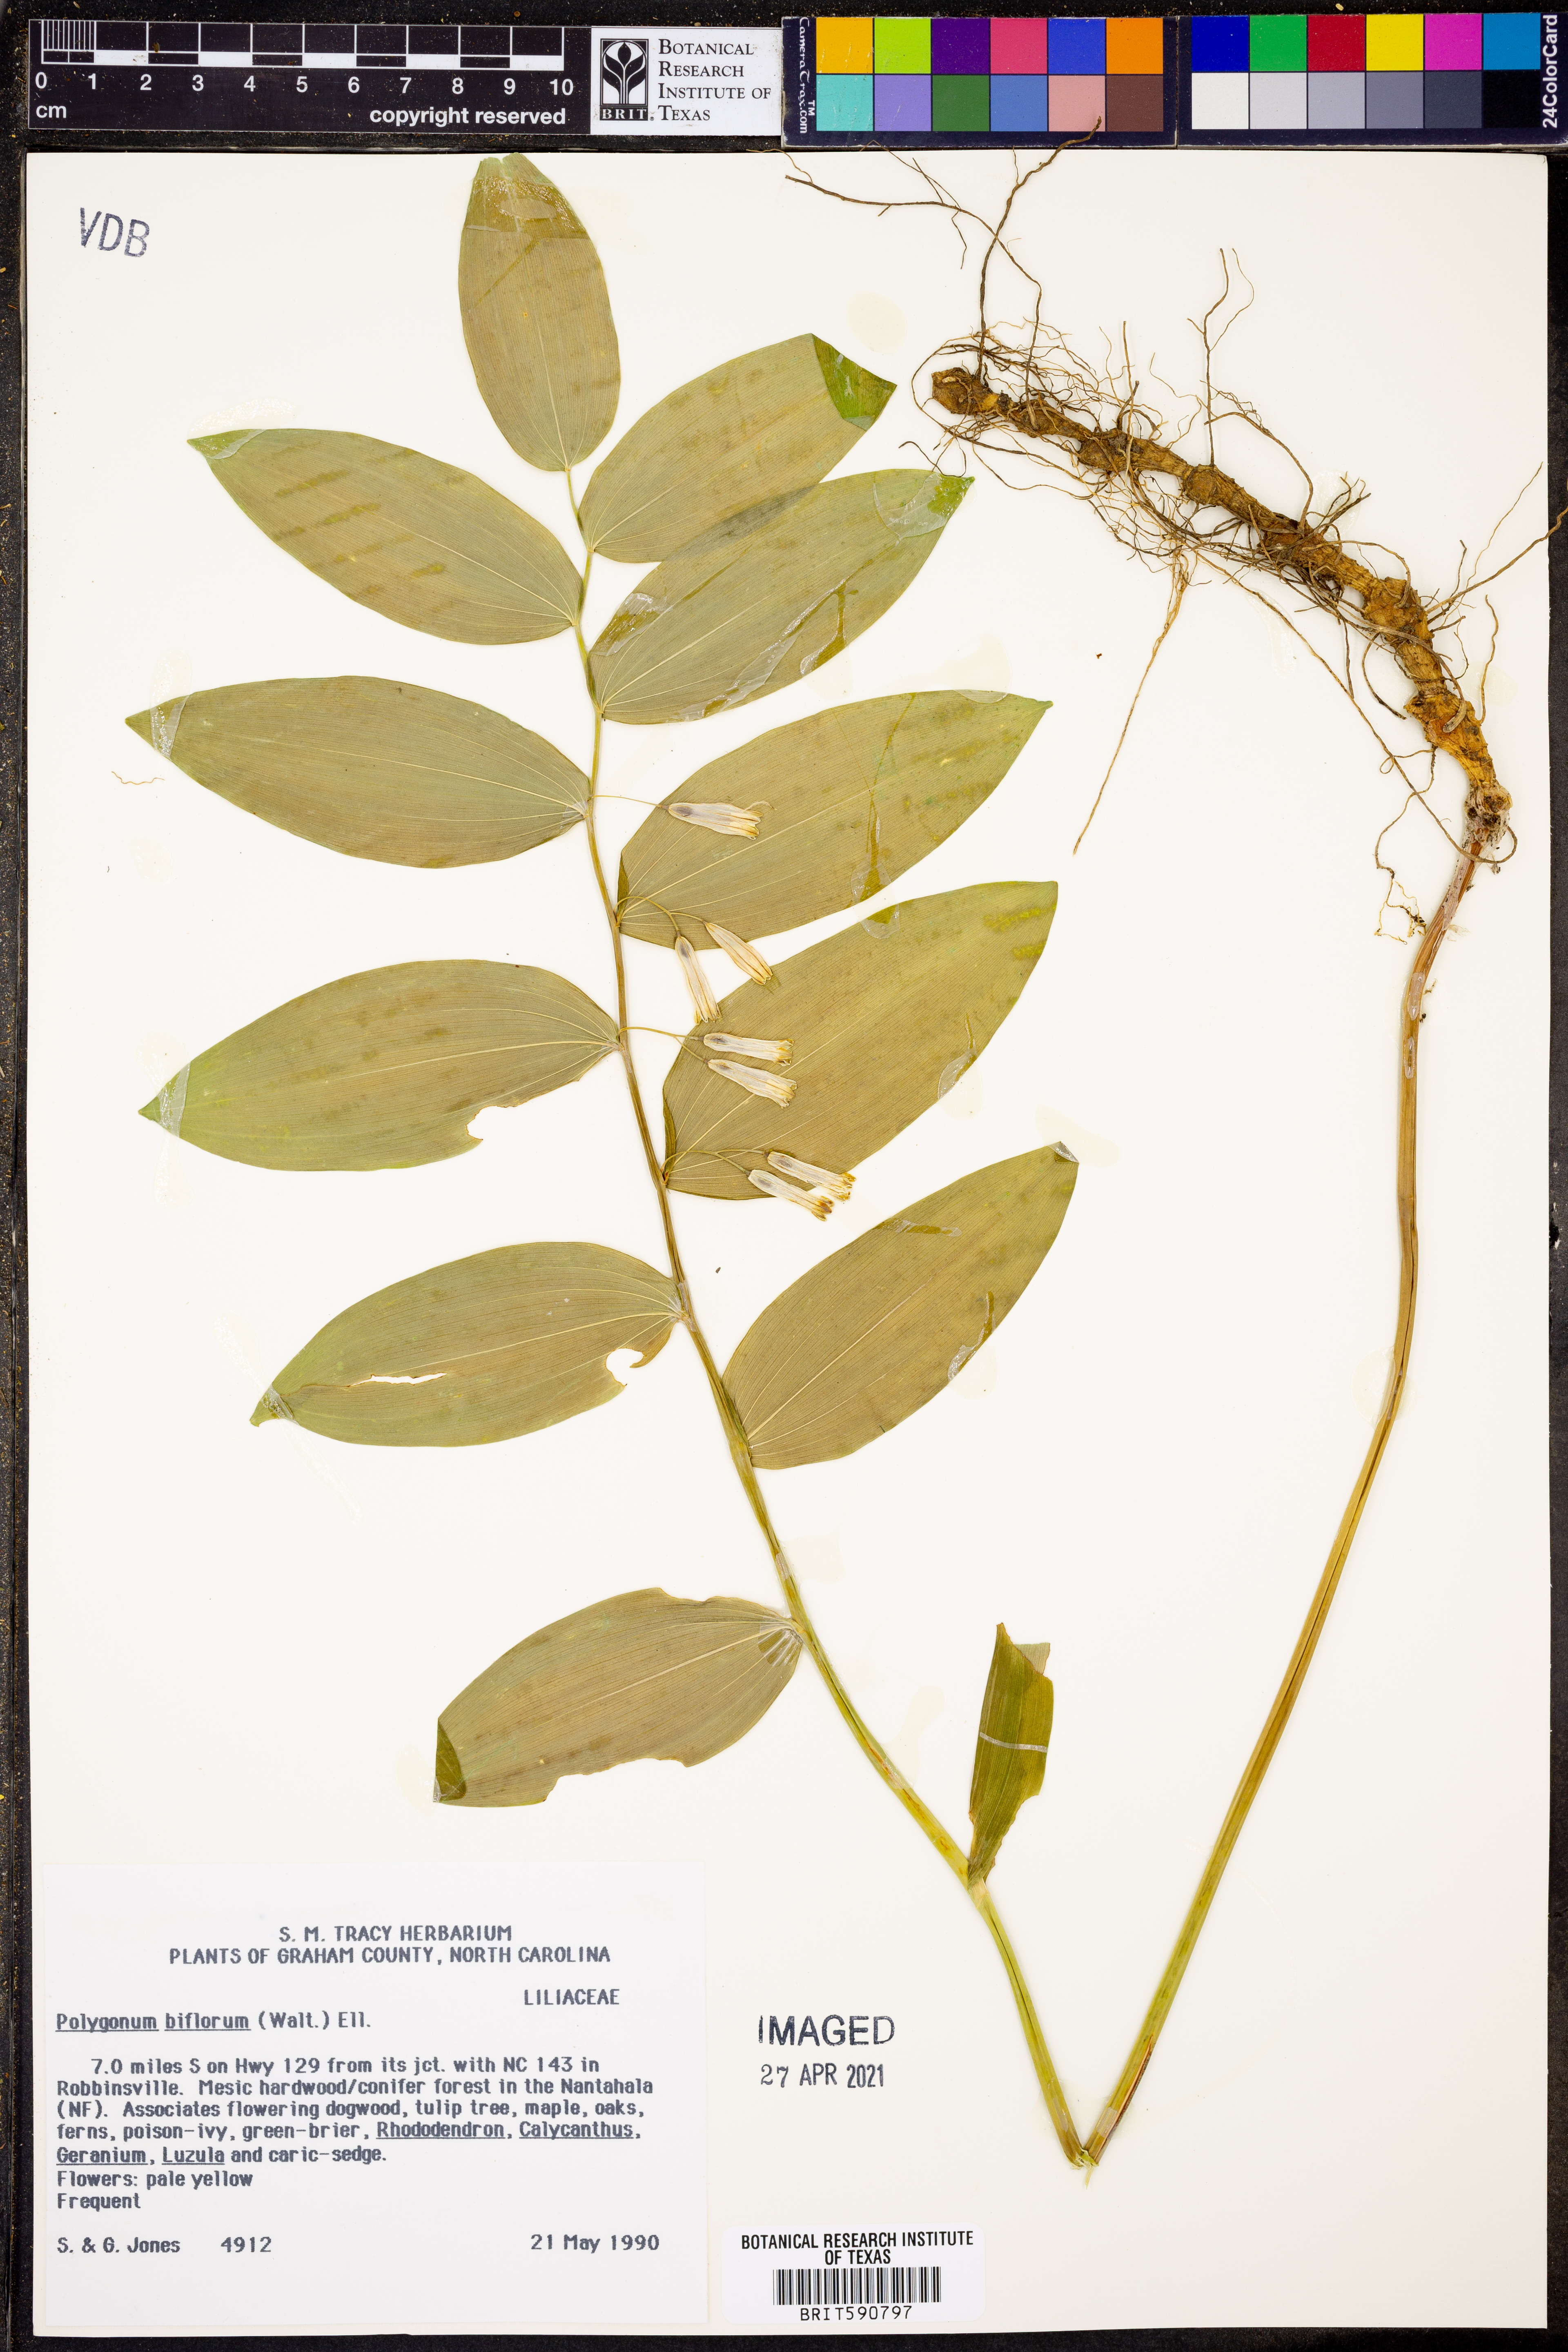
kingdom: Plantae
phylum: Tracheophyta
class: Magnoliopsida
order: Caryophyllales
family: Polygonaceae
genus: Polygonum
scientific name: Polygonum
